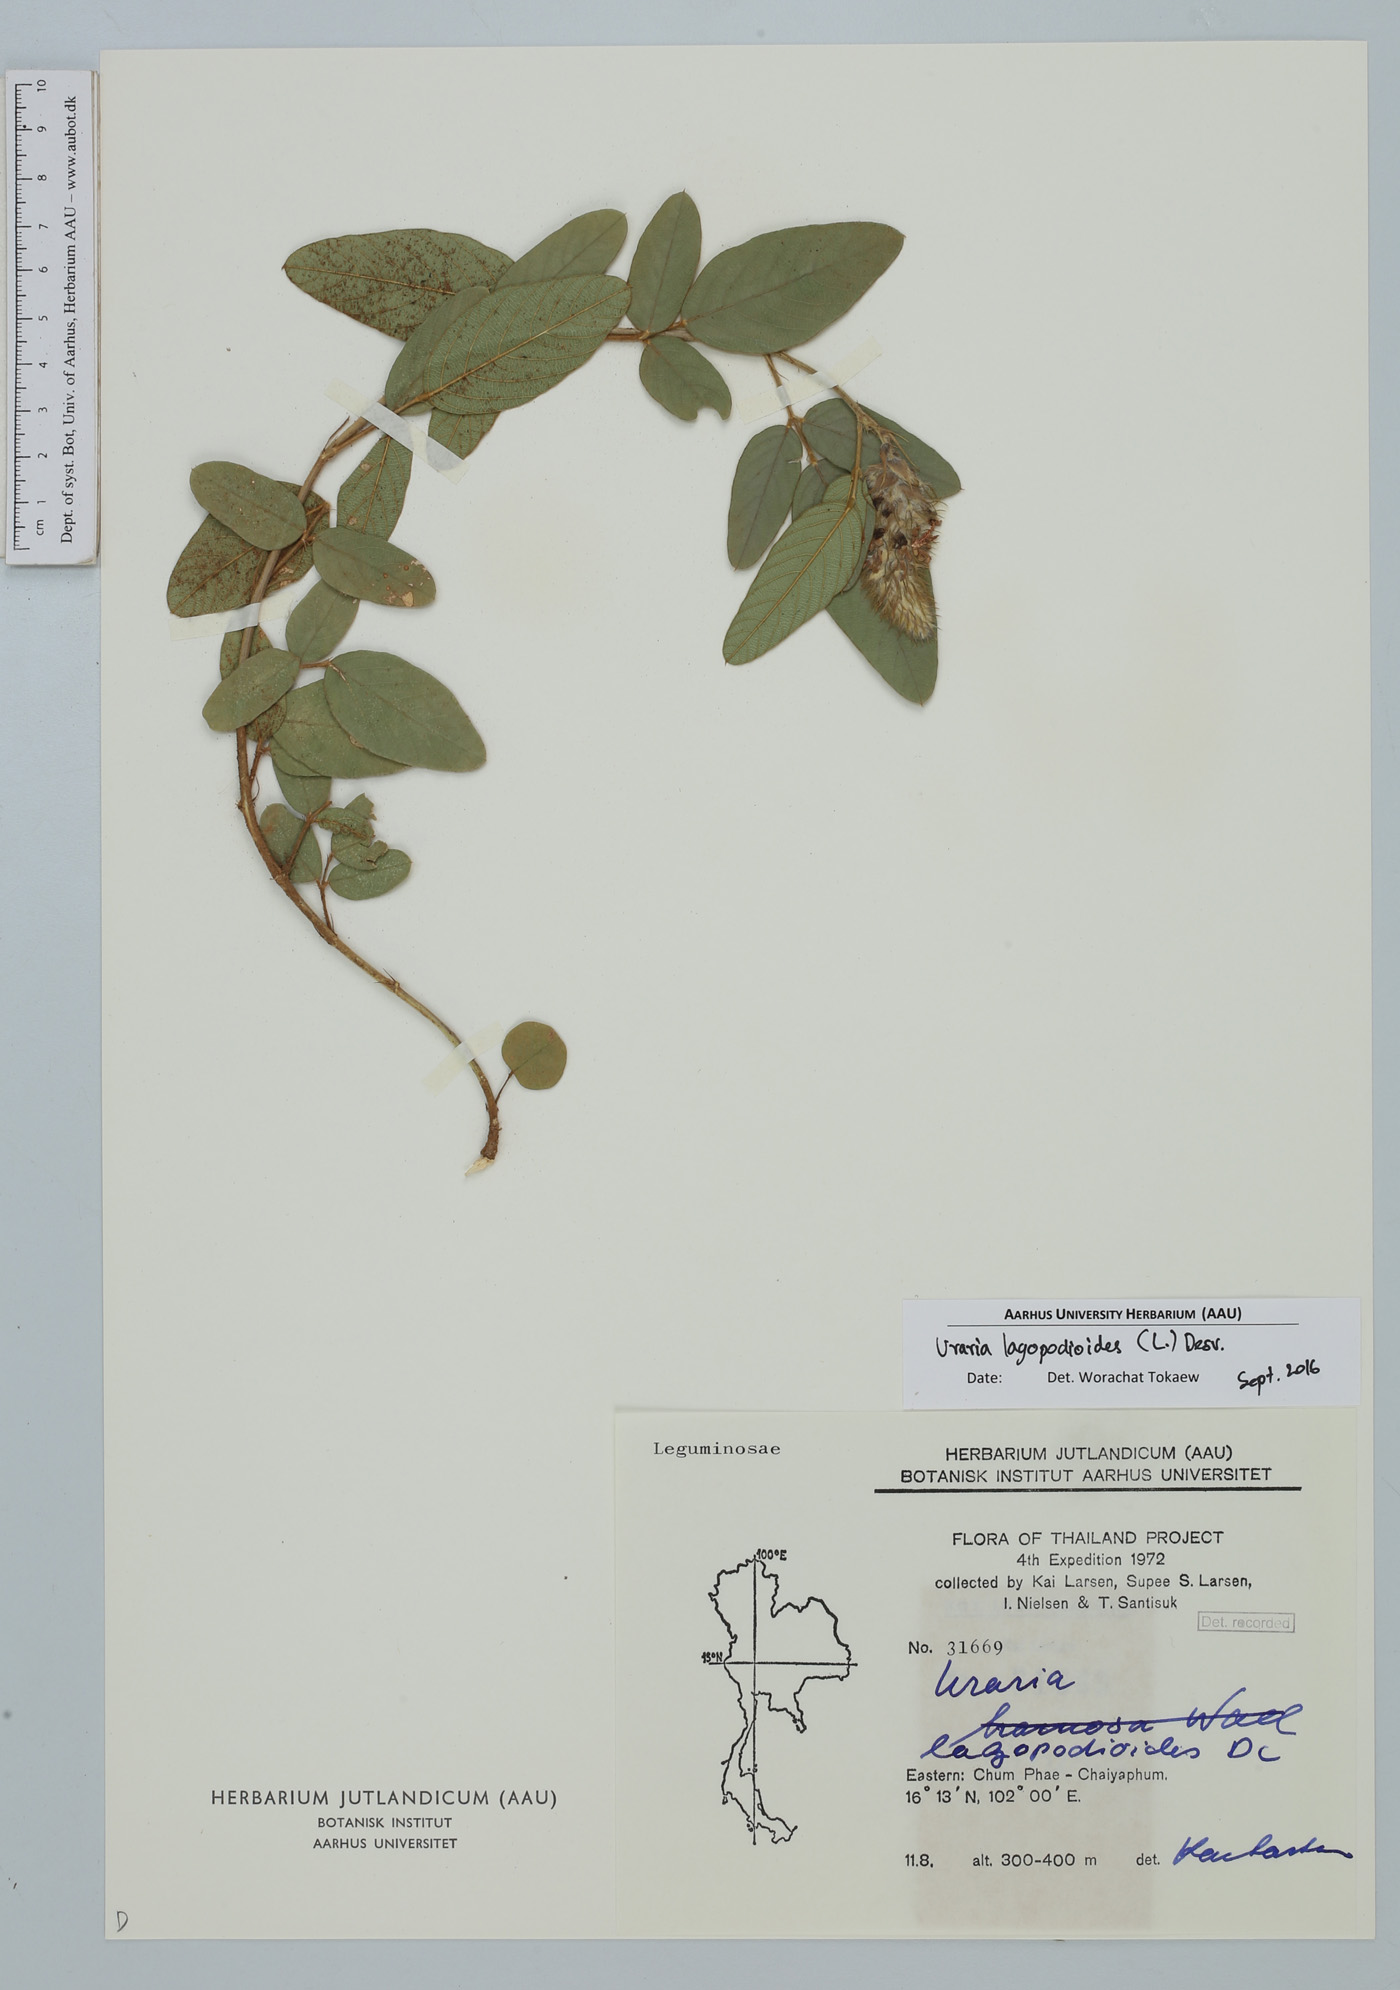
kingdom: Plantae
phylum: Tracheophyta
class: Magnoliopsida
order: Fabales
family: Fabaceae
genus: Uraria
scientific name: Uraria lagopodioides
